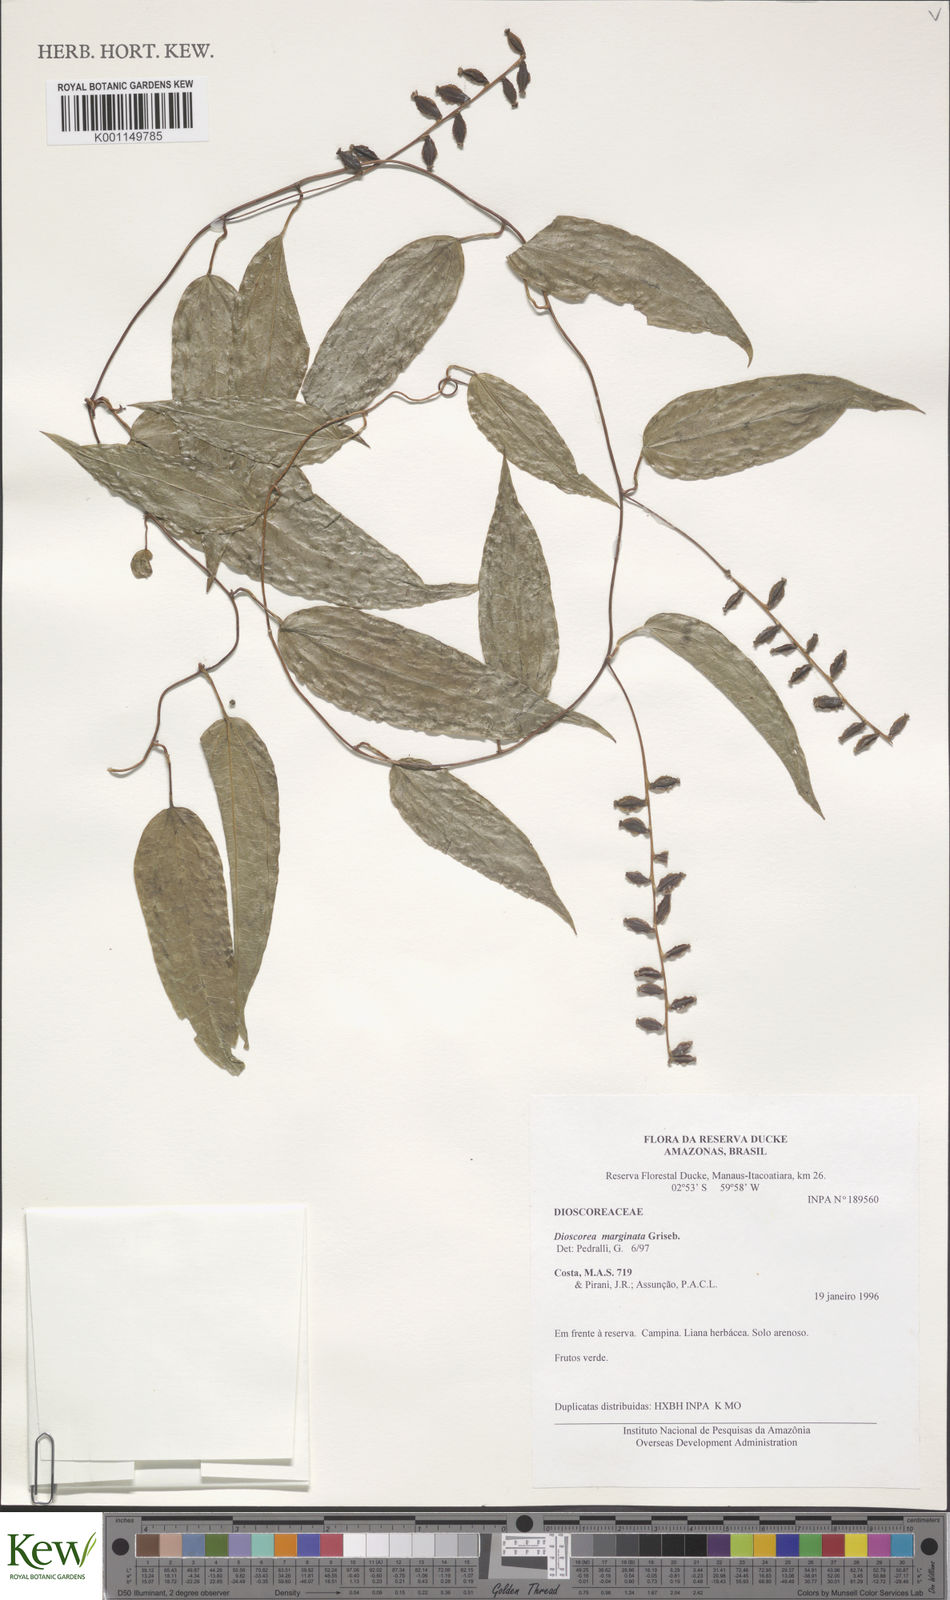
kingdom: Plantae
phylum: Tracheophyta
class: Liliopsida
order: Dioscoreales
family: Dioscoreaceae
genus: Dioscorea
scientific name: Dioscorea
